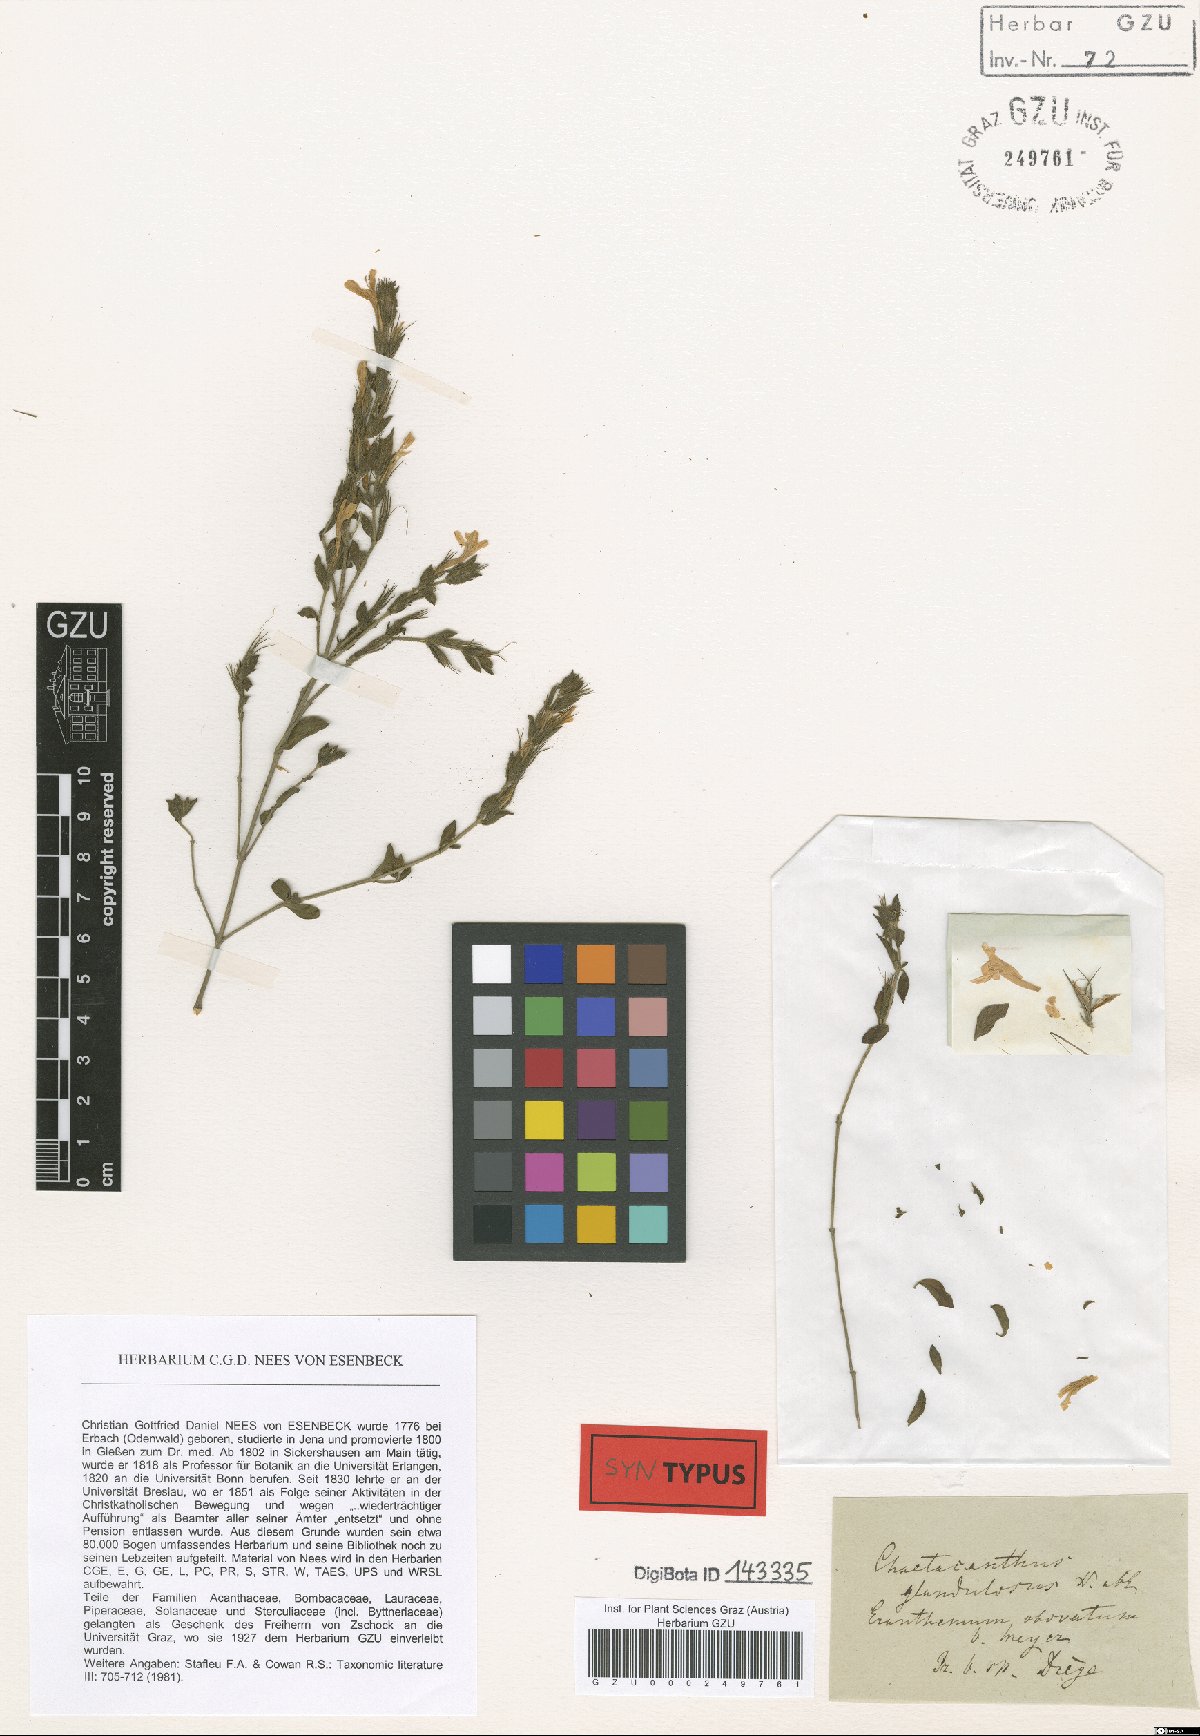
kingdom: Plantae
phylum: Tracheophyta
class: Magnoliopsida
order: Lamiales
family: Acanthaceae
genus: Dyschoriste
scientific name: Dyschoriste setigera
